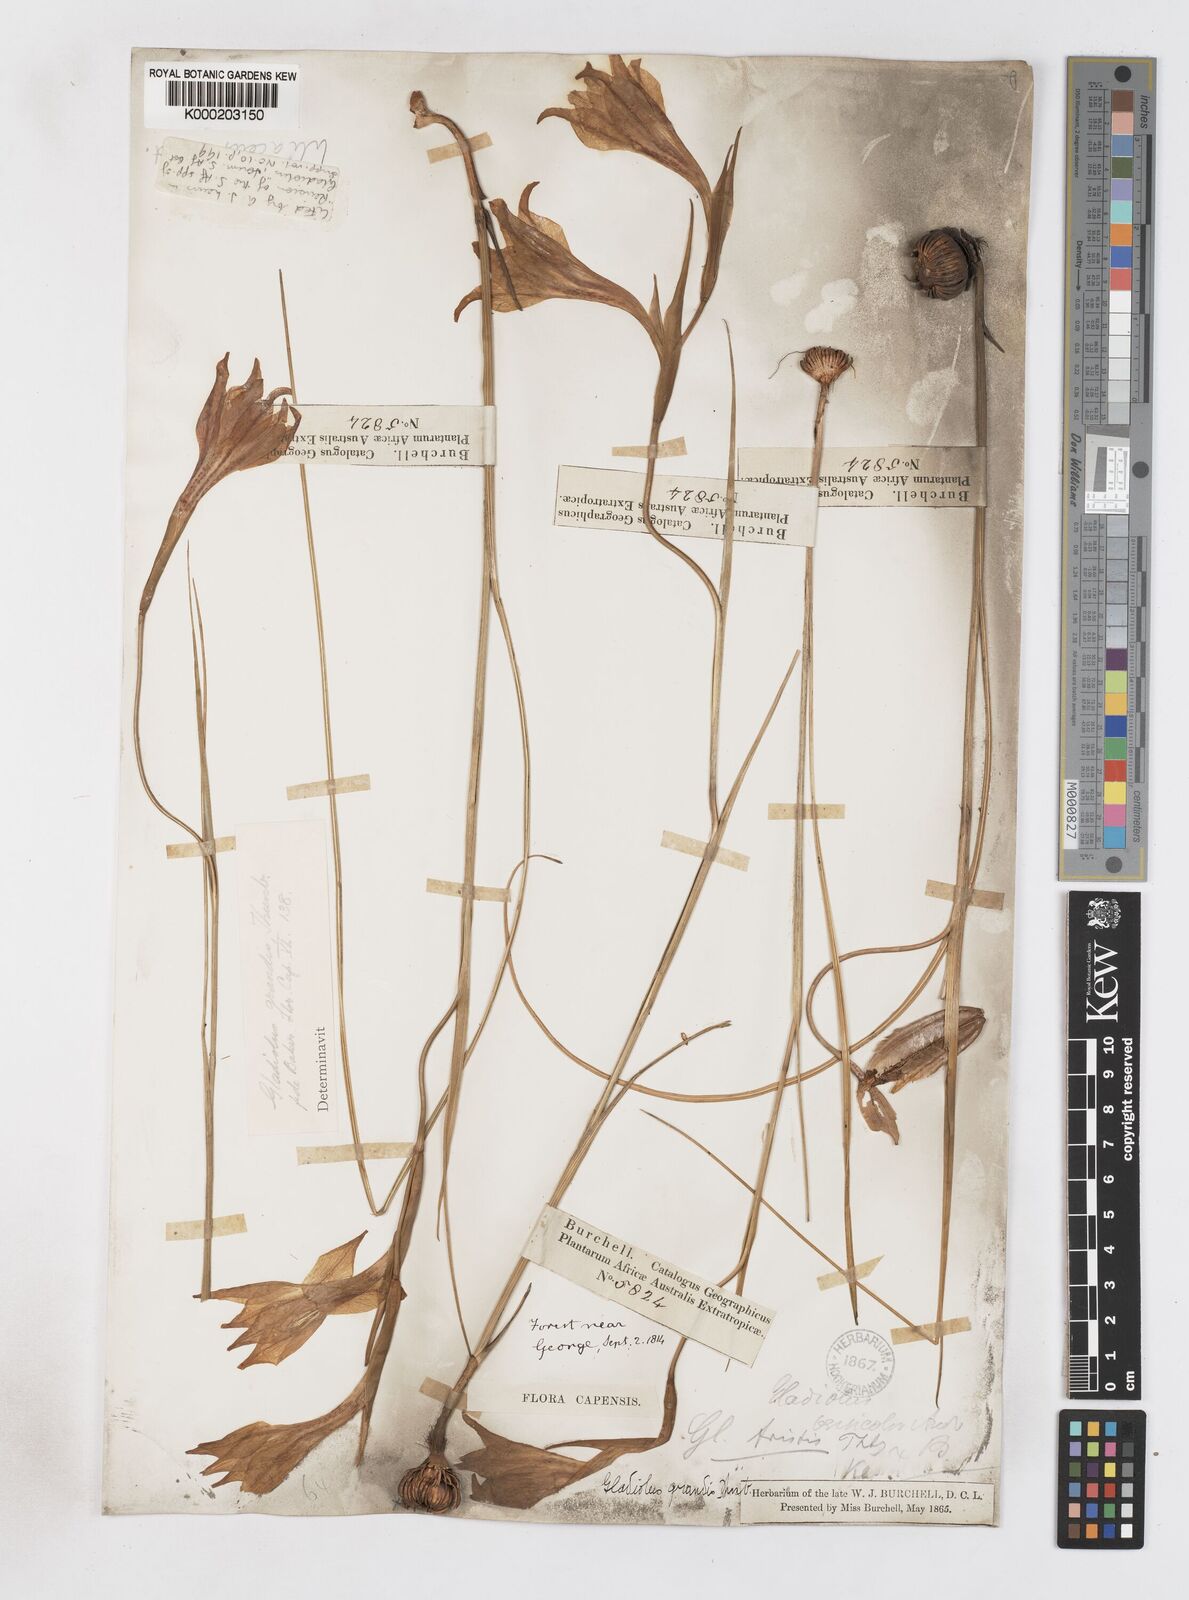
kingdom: Plantae
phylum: Tracheophyta
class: Liliopsida
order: Asparagales
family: Iridaceae
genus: Gladiolus
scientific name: Gladiolus liliaceus
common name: Large brown afrikaner
